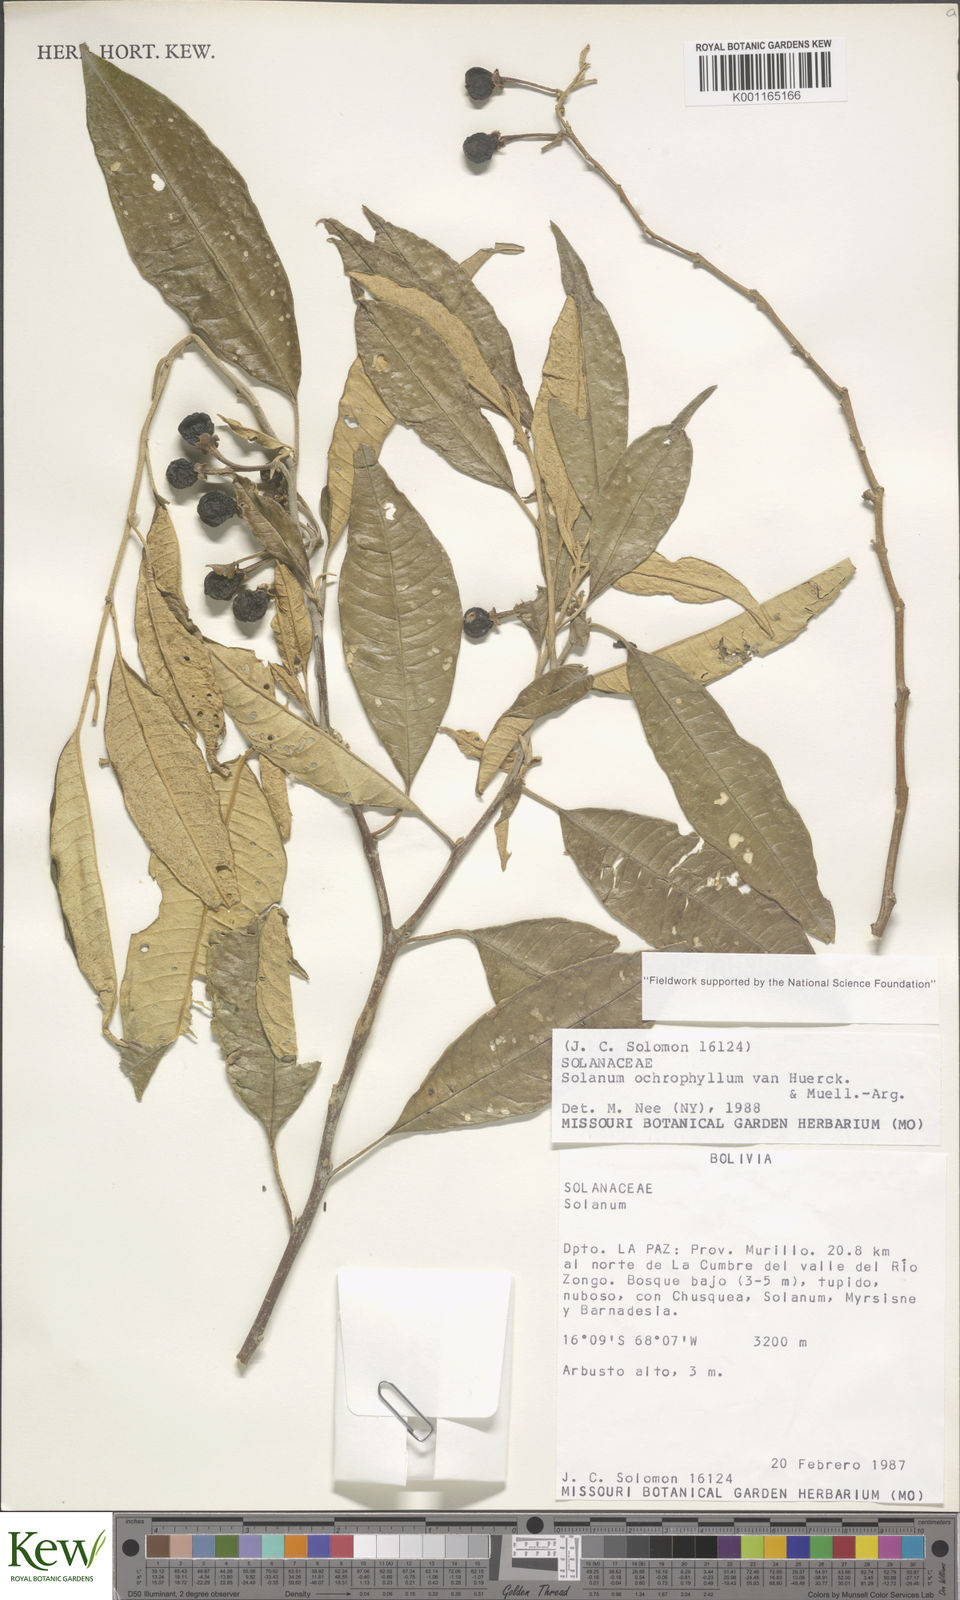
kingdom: Plantae
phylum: Tracheophyta
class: Magnoliopsida
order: Solanales
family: Solanaceae
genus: Solanum
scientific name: Solanum ochrophyllum
